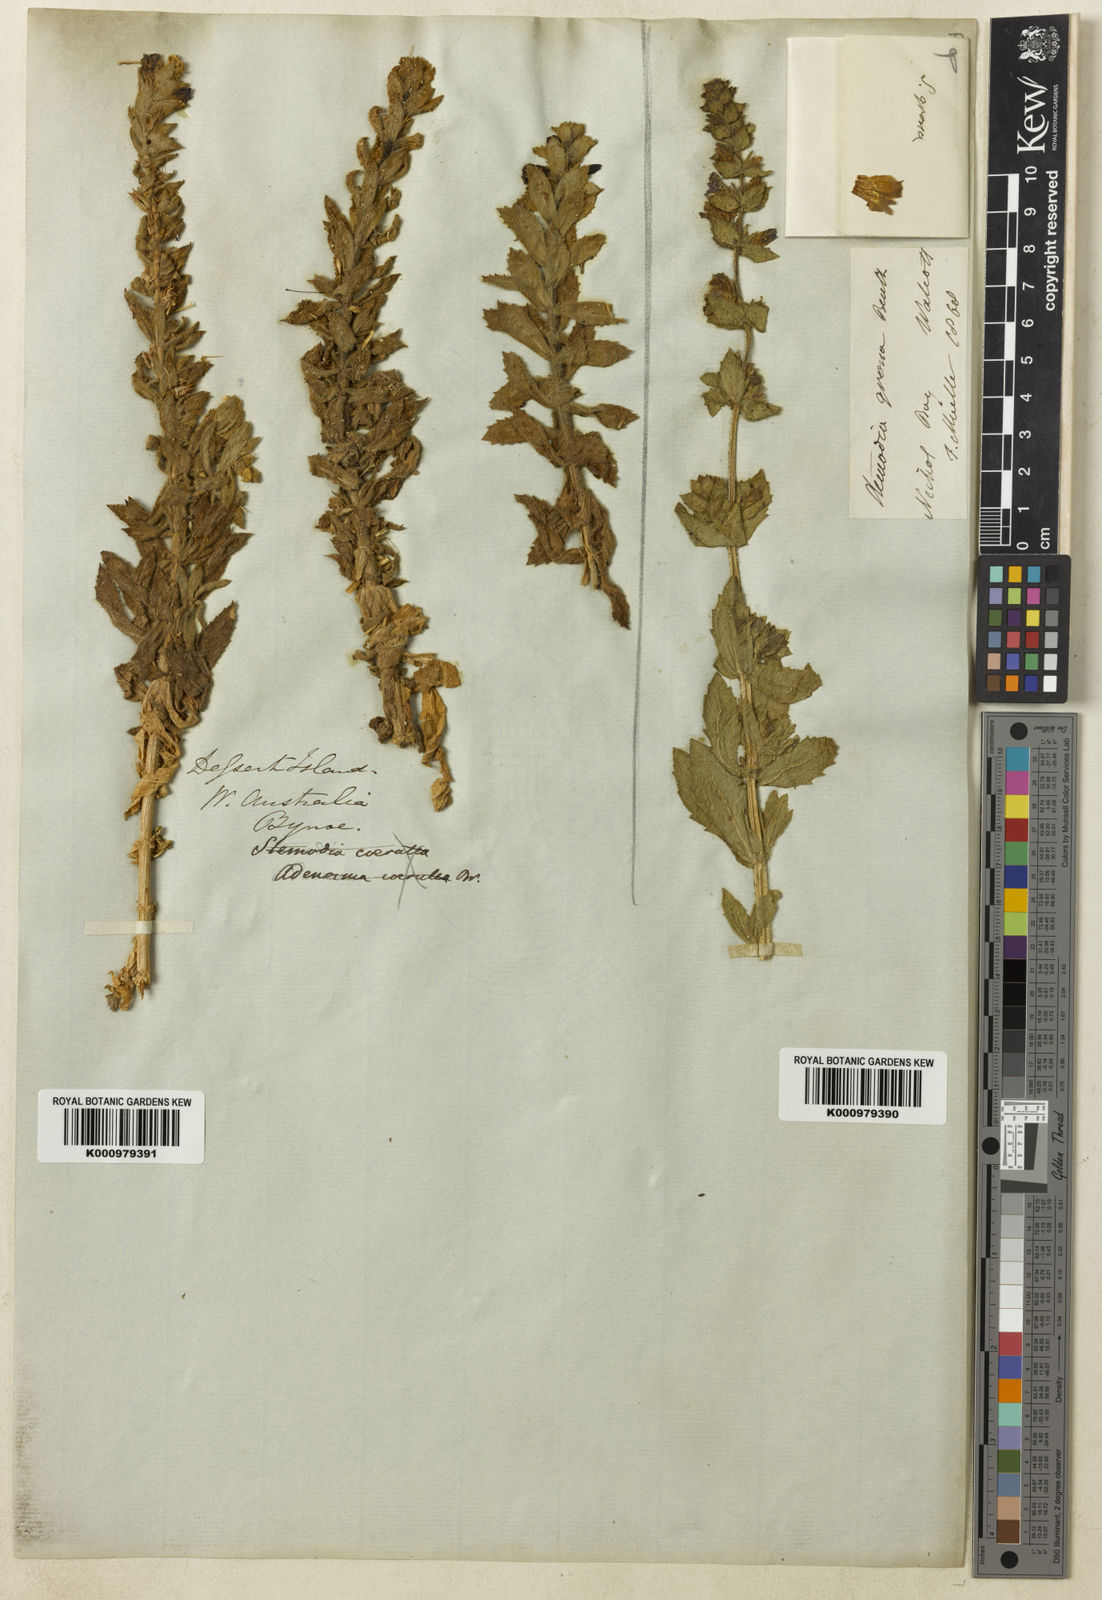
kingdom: Plantae
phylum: Tracheophyta
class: Magnoliopsida
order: Lamiales
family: Plantaginaceae
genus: Stemodia
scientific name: Stemodia grossa
